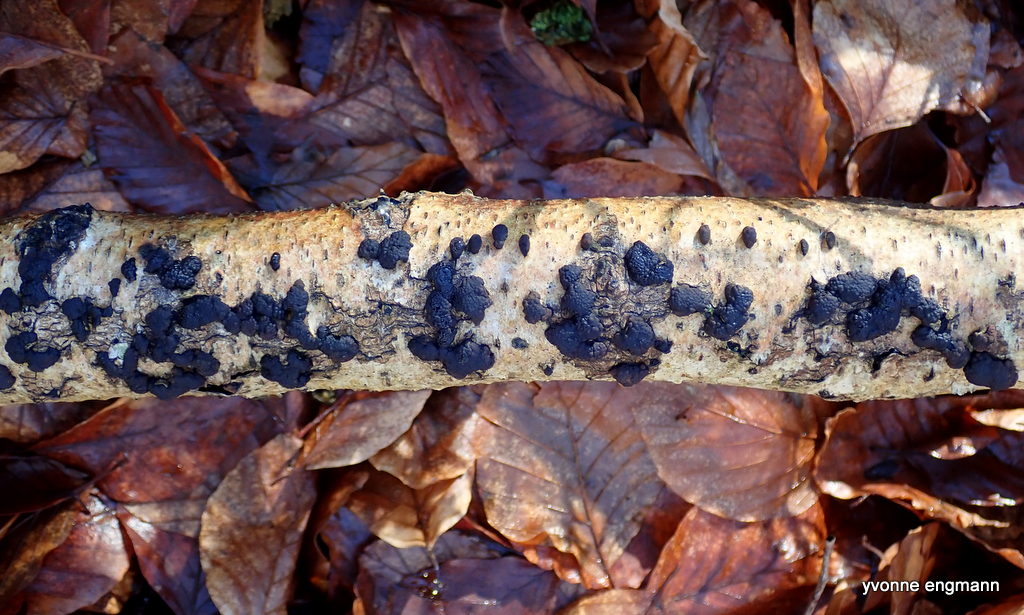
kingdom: Fungi
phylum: Ascomycota
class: Sordariomycetes
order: Xylariales
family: Hypoxylaceae
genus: Jackrogersella
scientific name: Jackrogersella multiformis
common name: foranderlig kulbær
